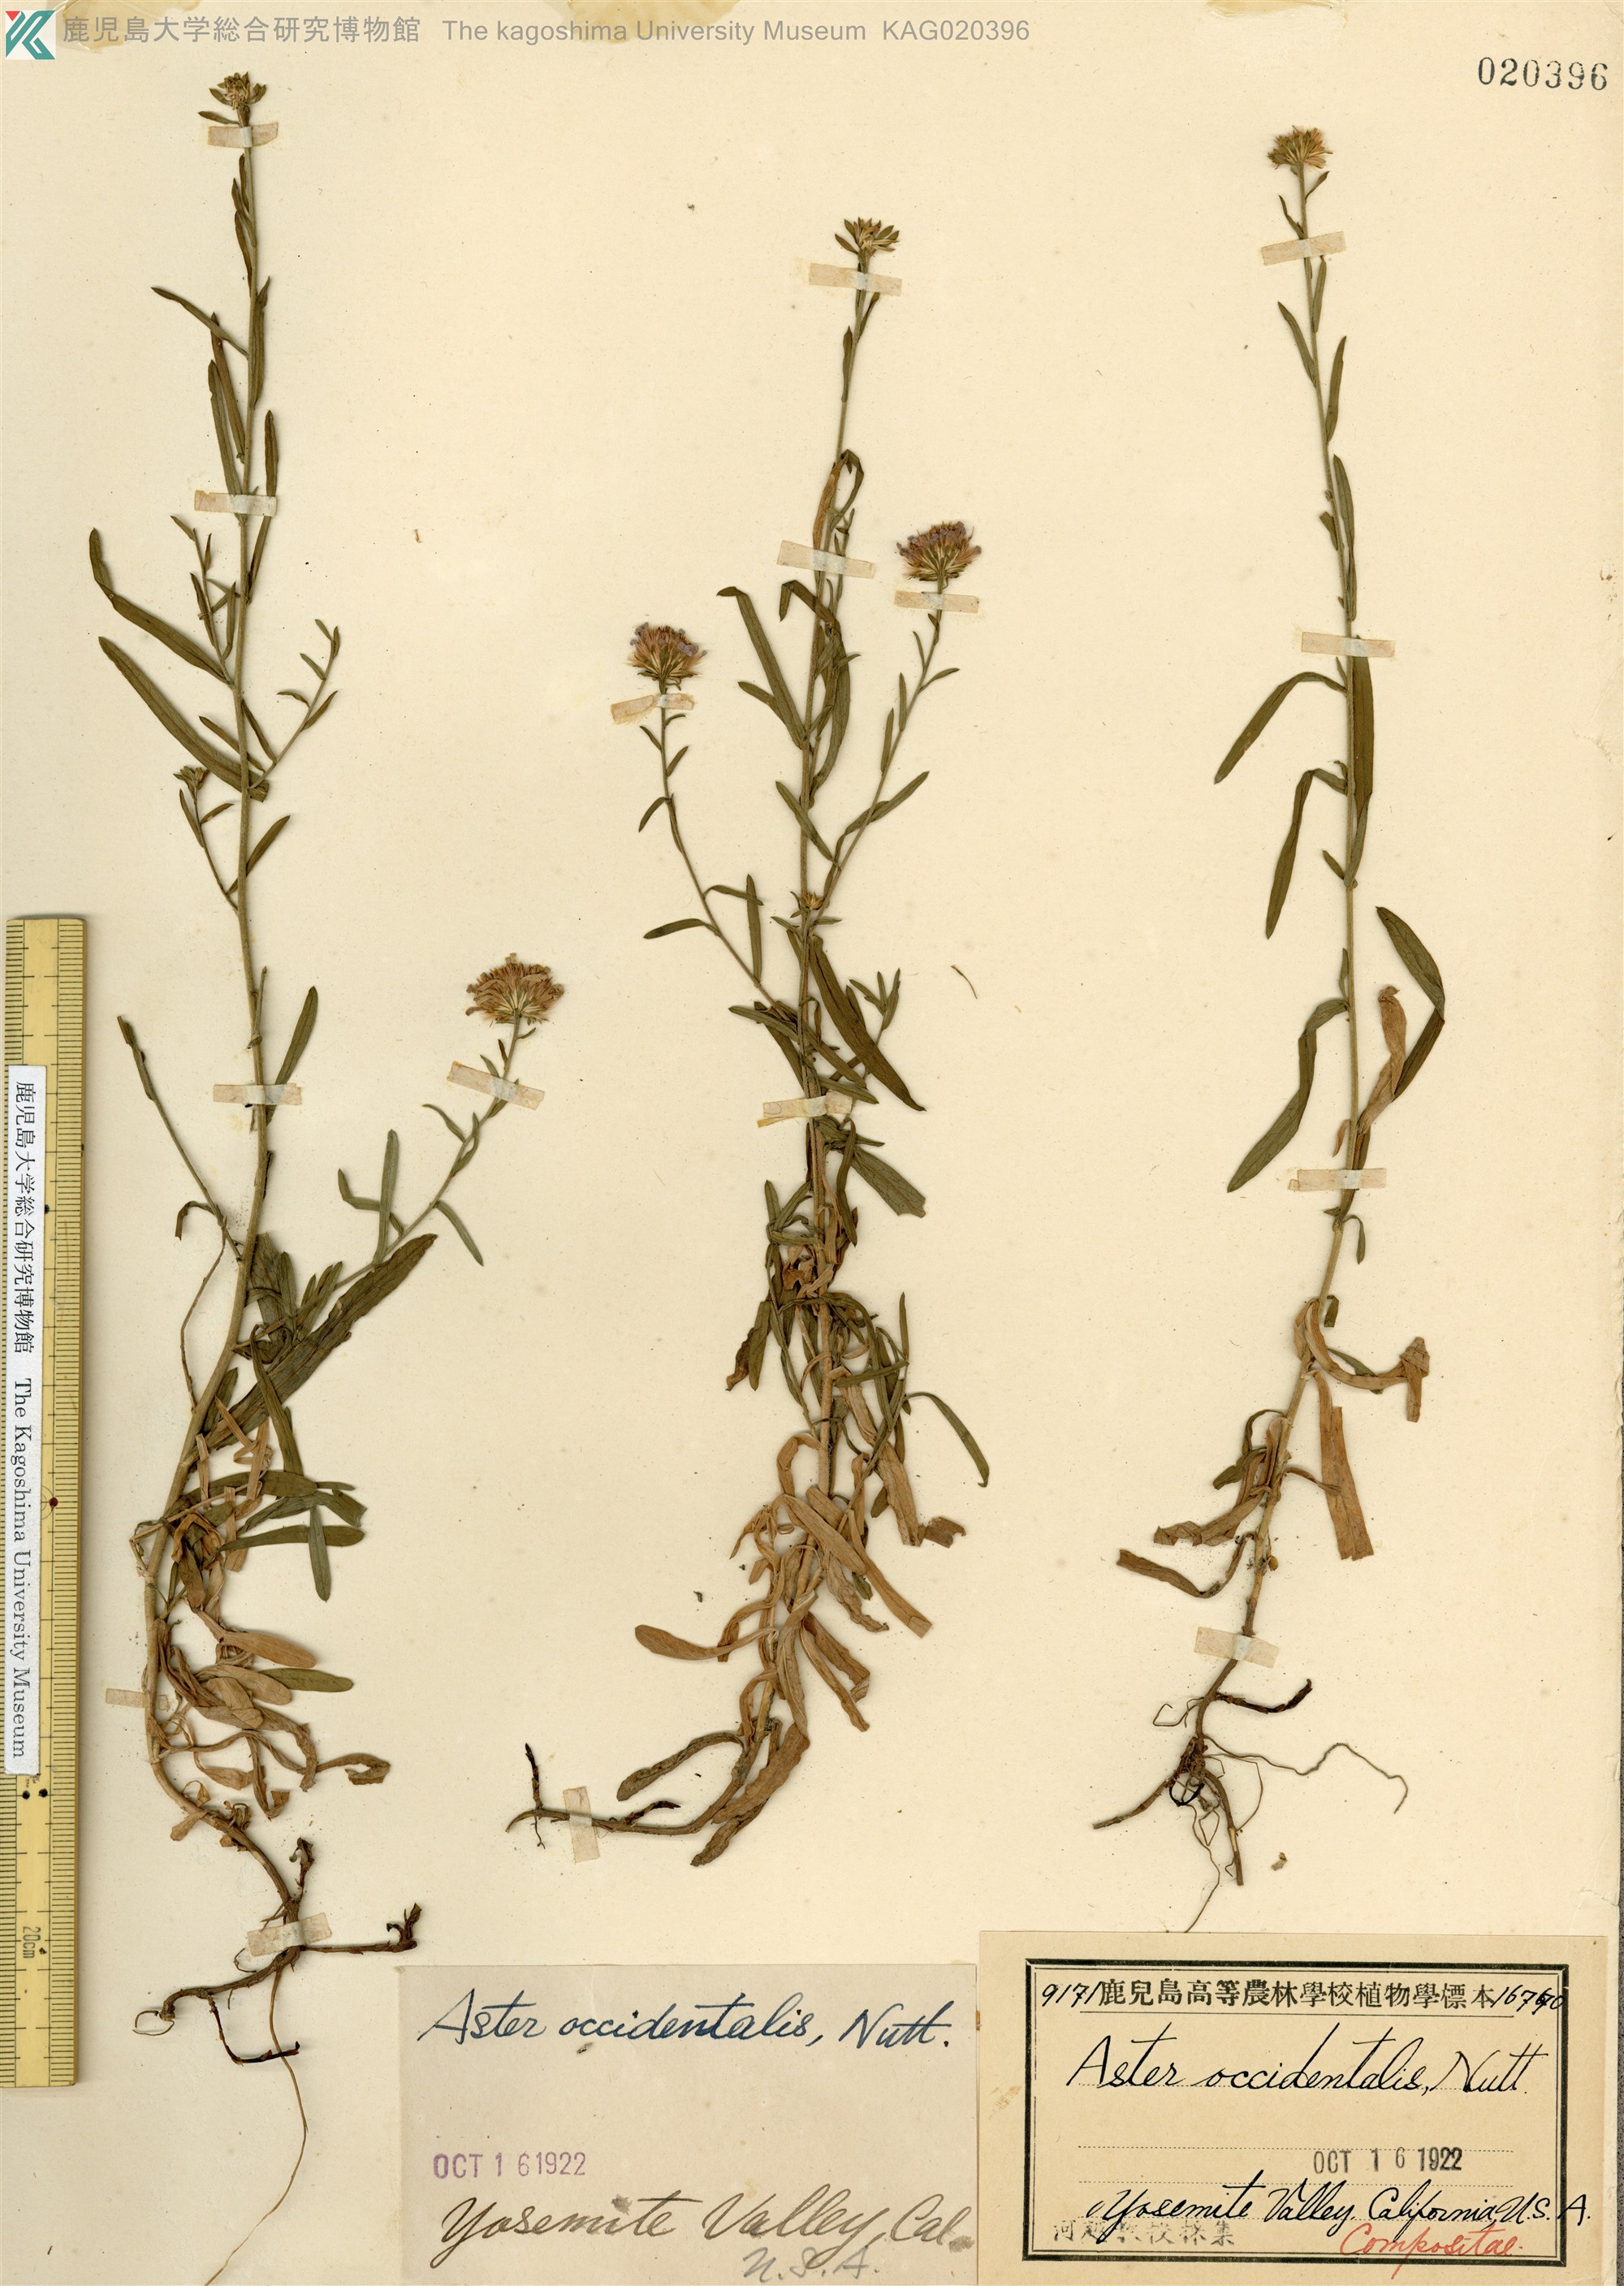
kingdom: Plantae
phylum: Tracheophyta
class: Magnoliopsida
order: Asterales
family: Asteraceae
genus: Symphyotrichum
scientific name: Symphyotrichum spathulatum
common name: Western mountain aster
